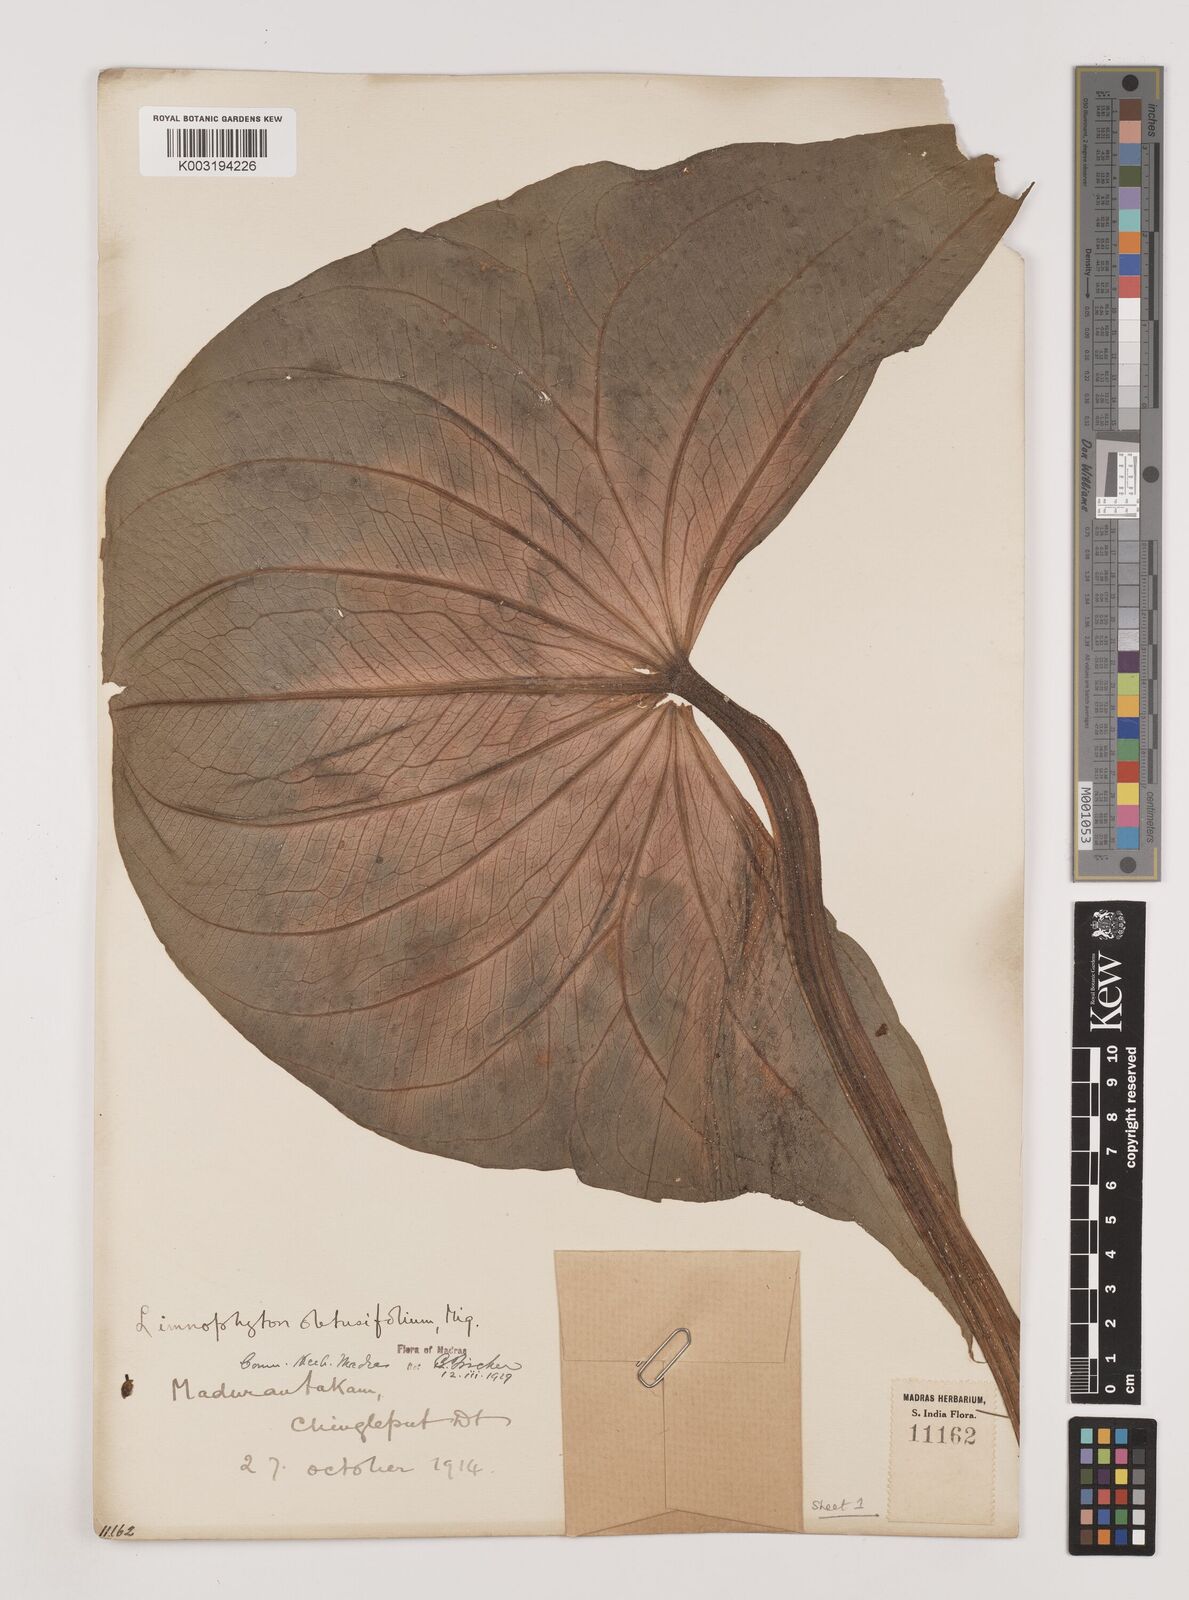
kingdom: Plantae
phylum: Tracheophyta
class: Liliopsida
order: Alismatales
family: Alismataceae
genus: Limnophyton
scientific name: Limnophyton obtusifolium
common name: Arrow head
